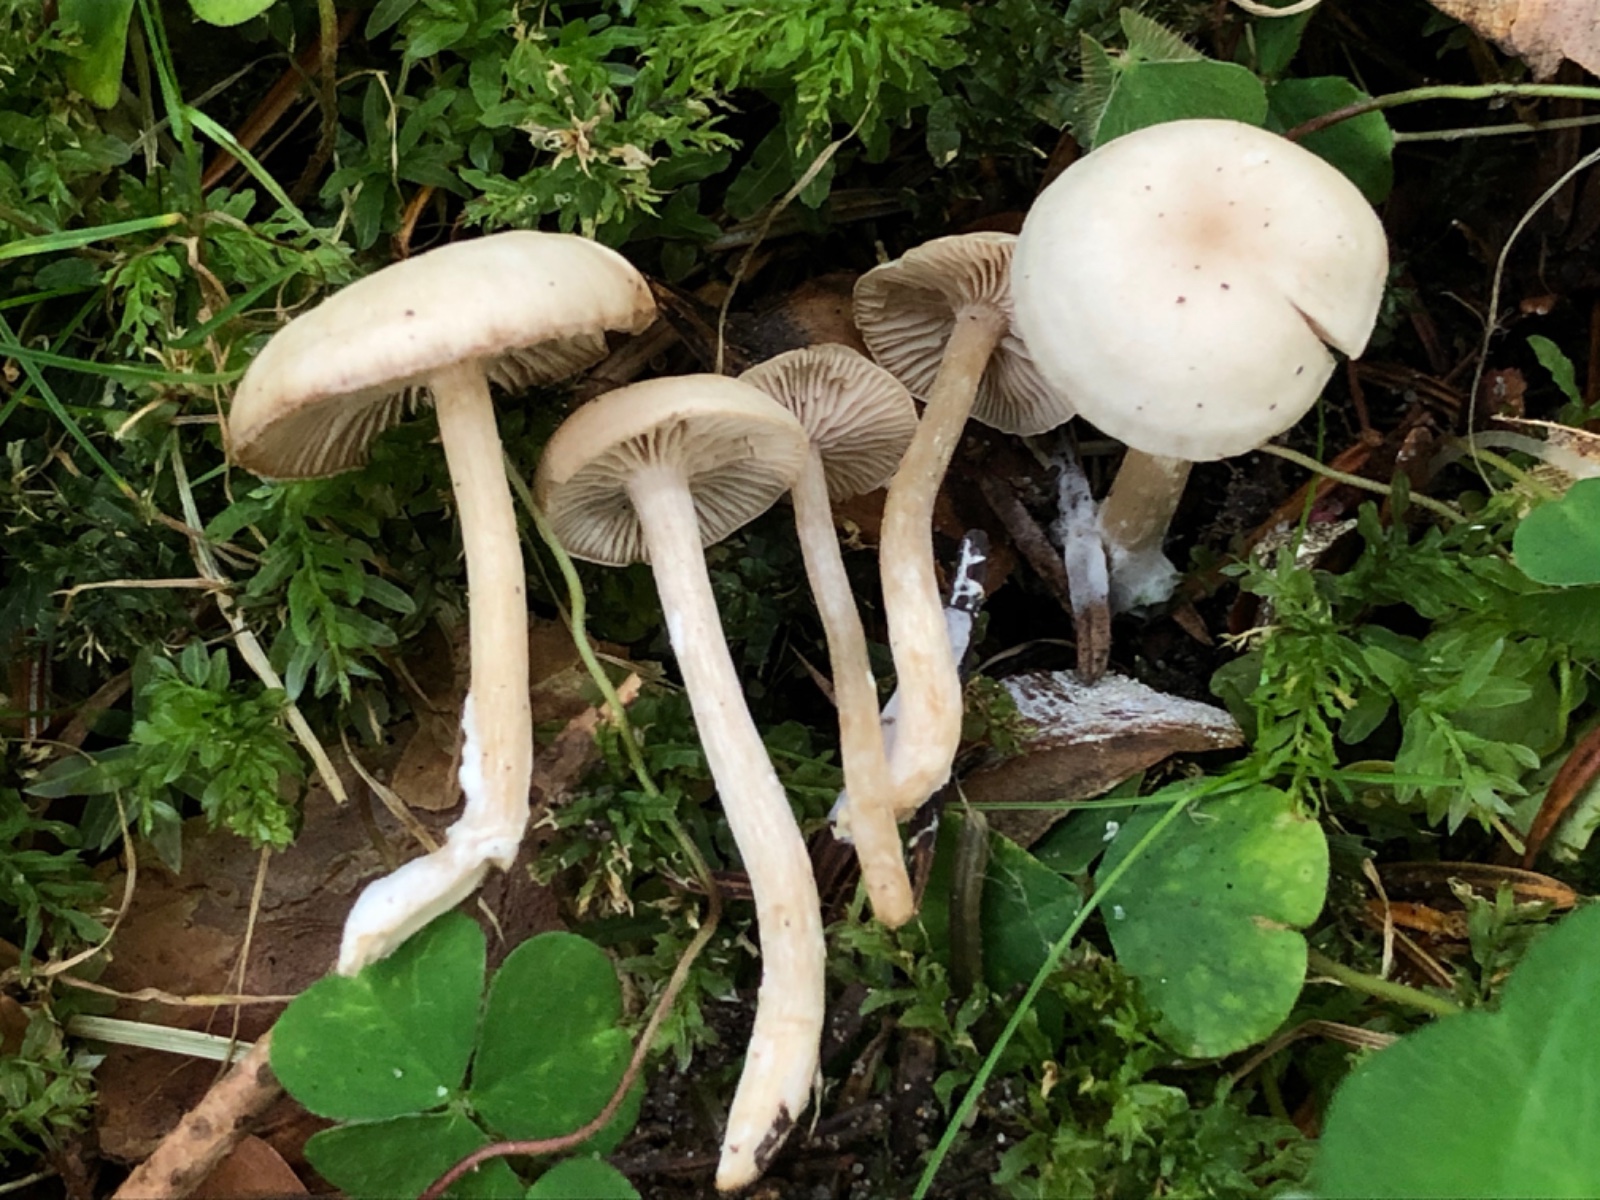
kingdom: Fungi
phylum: Basidiomycota
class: Agaricomycetes
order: Agaricales
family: Tricholomataceae
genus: Clitocybe
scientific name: Clitocybe fragrans
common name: vellugtende tragthat
